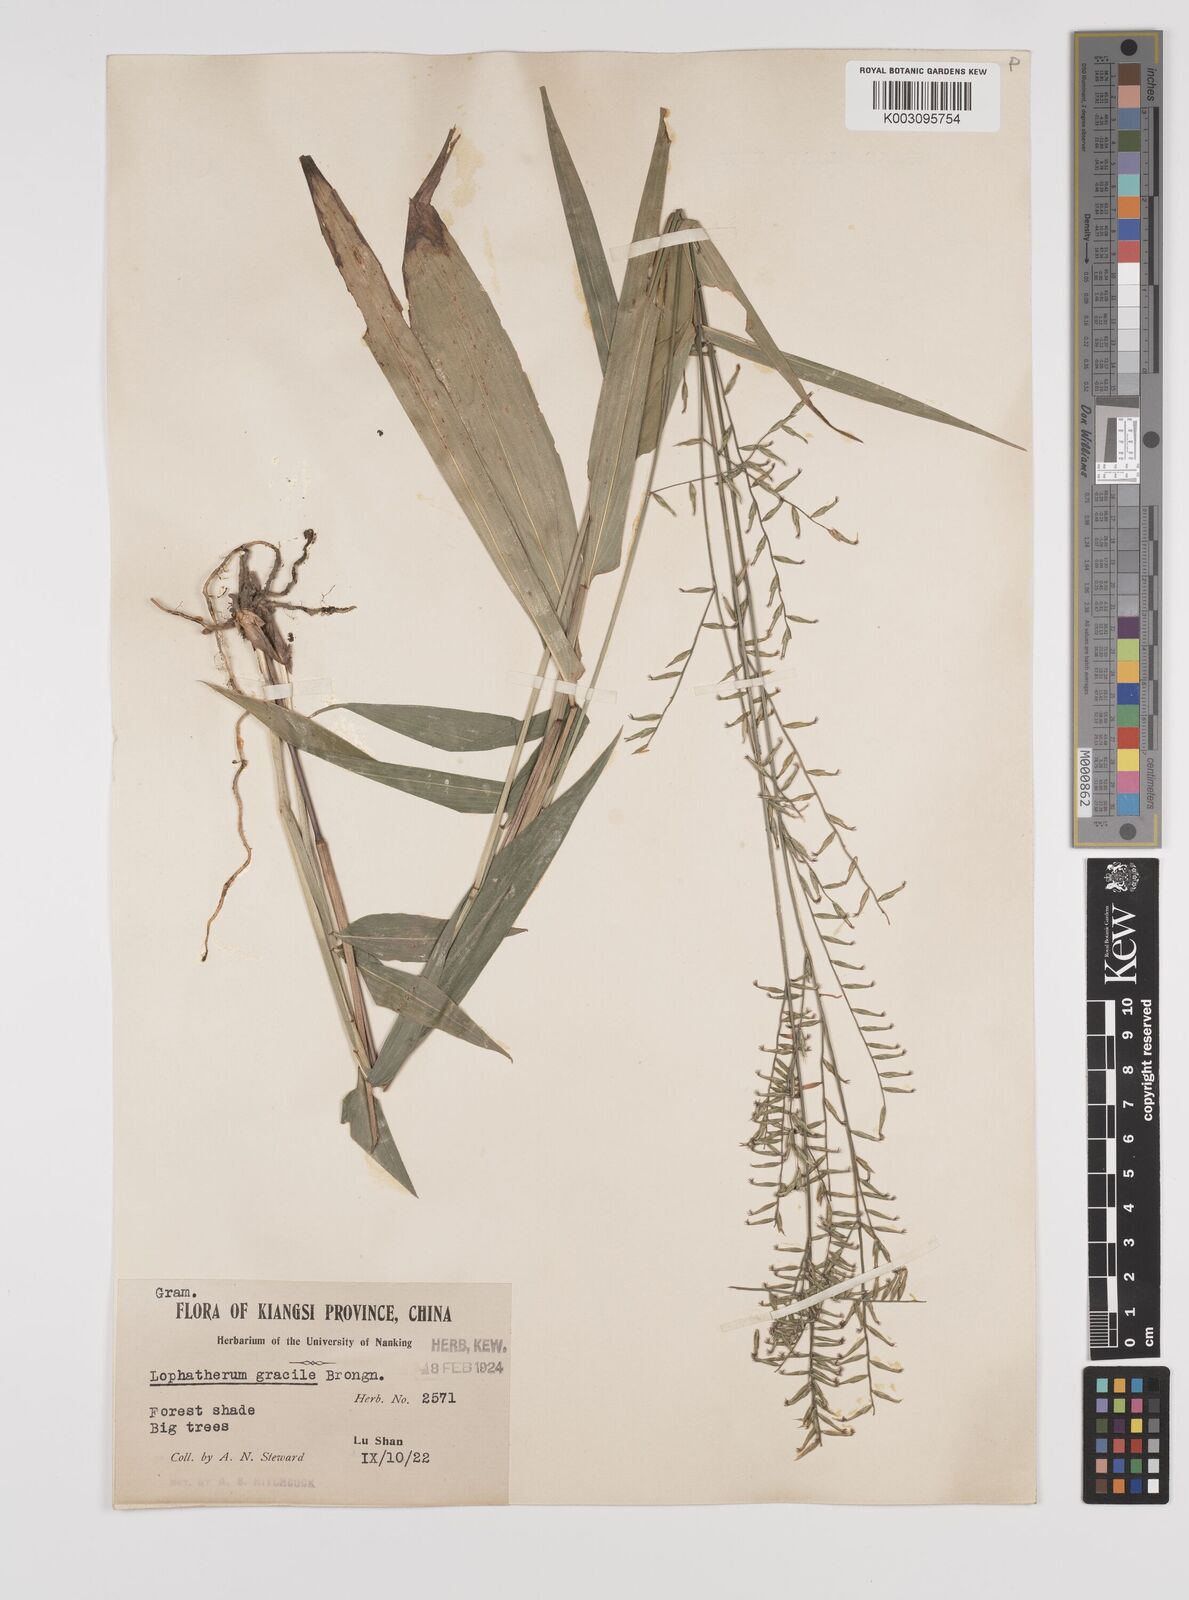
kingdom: Plantae
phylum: Tracheophyta
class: Liliopsida
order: Poales
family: Poaceae
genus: Lophatherum
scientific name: Lophatherum gracile
